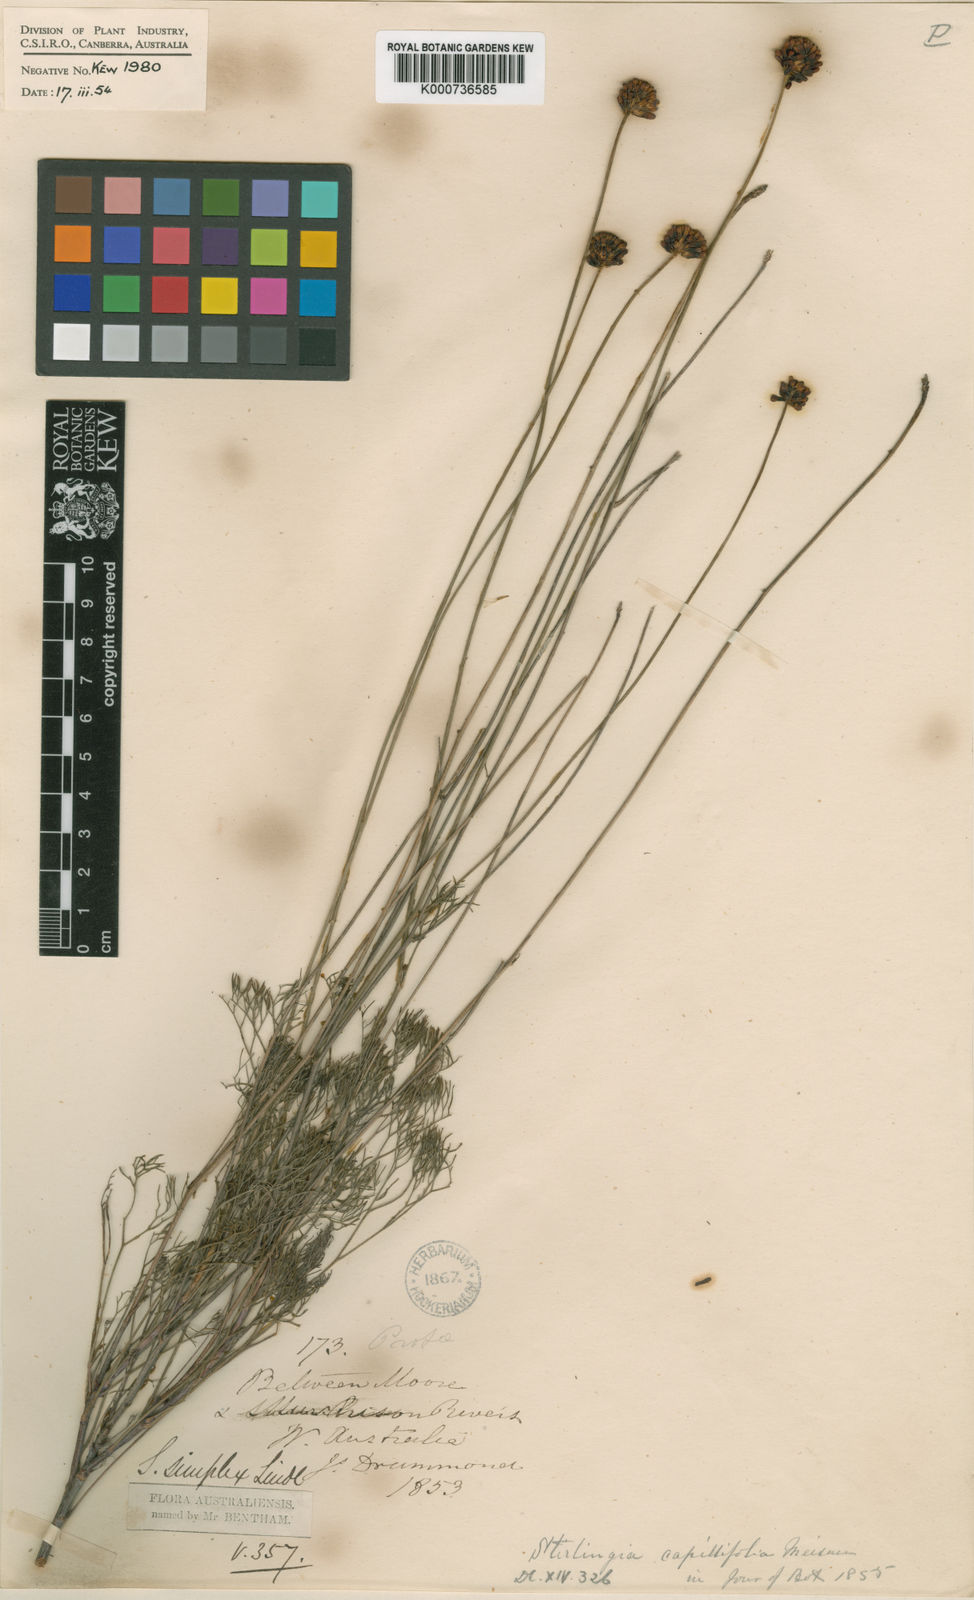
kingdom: Plantae
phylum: Tracheophyta
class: Magnoliopsida
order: Proteales
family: Proteaceae
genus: Stirlingia
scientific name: Stirlingia simplex
